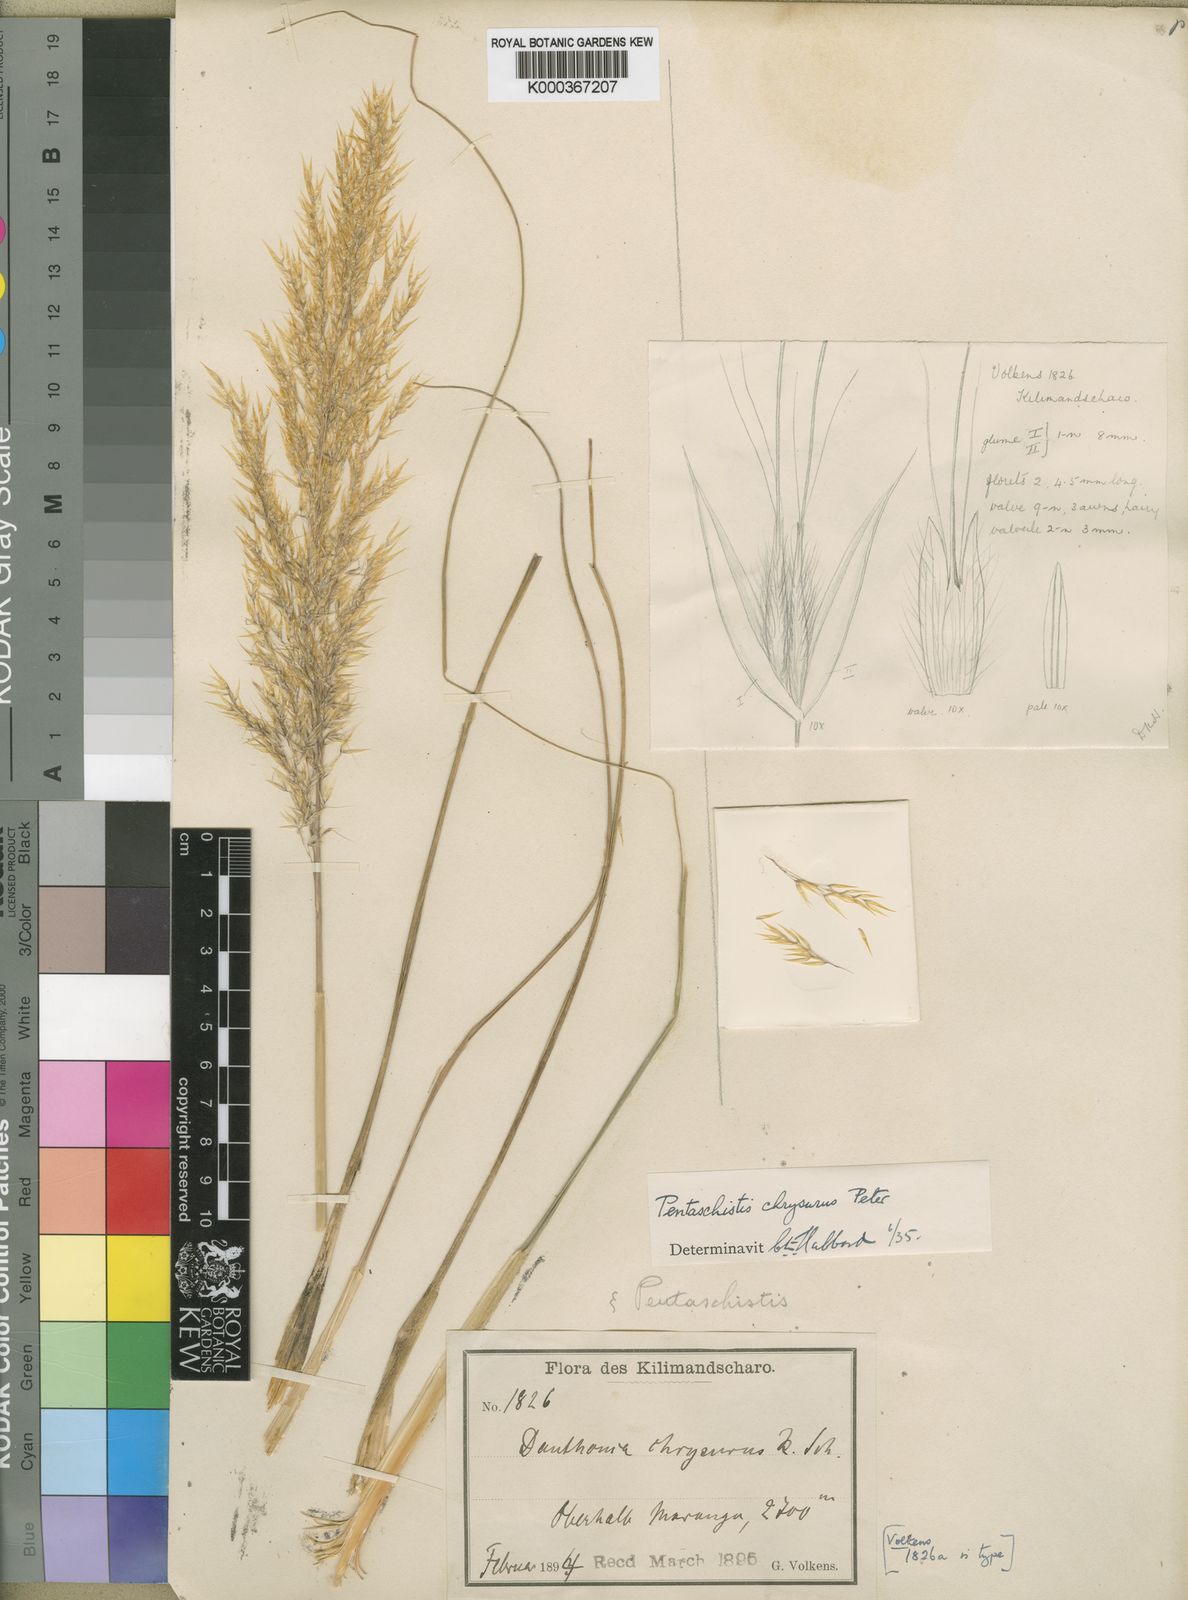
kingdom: Plantae
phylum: Tracheophyta
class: Liliopsida
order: Poales
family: Poaceae
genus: Pentameris
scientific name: Pentameris chrysurus
